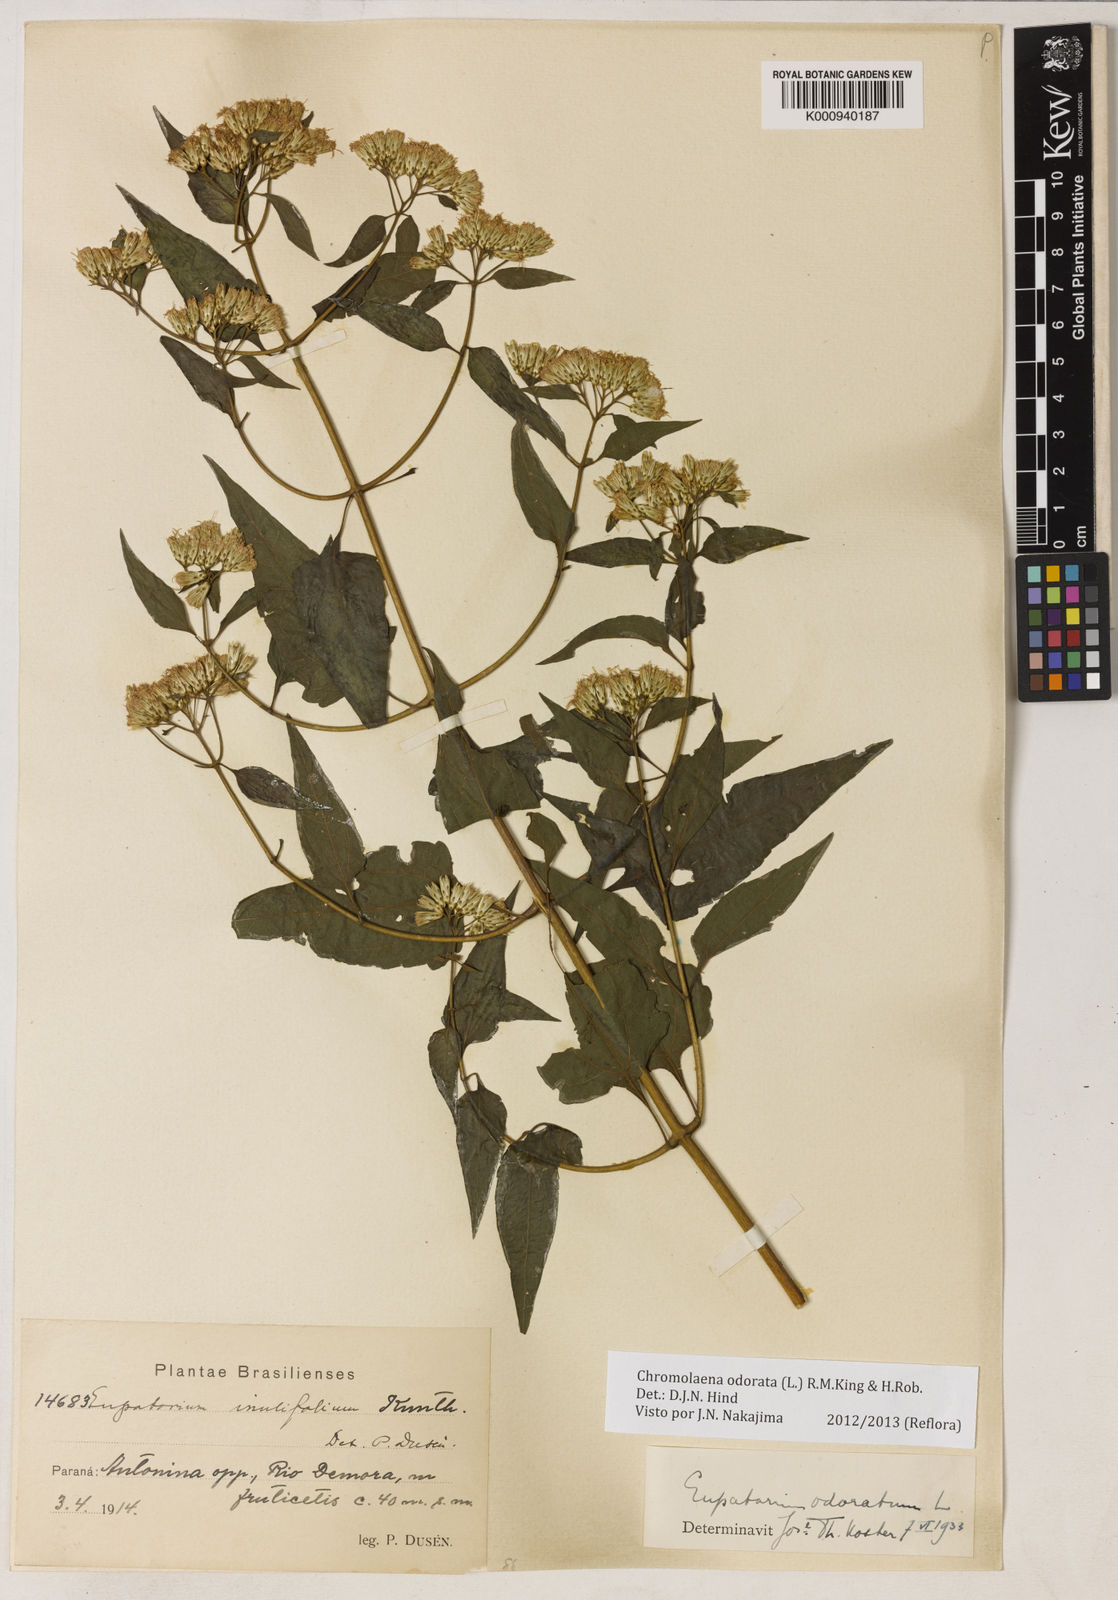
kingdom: Plantae
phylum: Tracheophyta
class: Magnoliopsida
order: Asterales
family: Asteraceae
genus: Chromolaena
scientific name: Chromolaena odorata
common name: Siamweed
